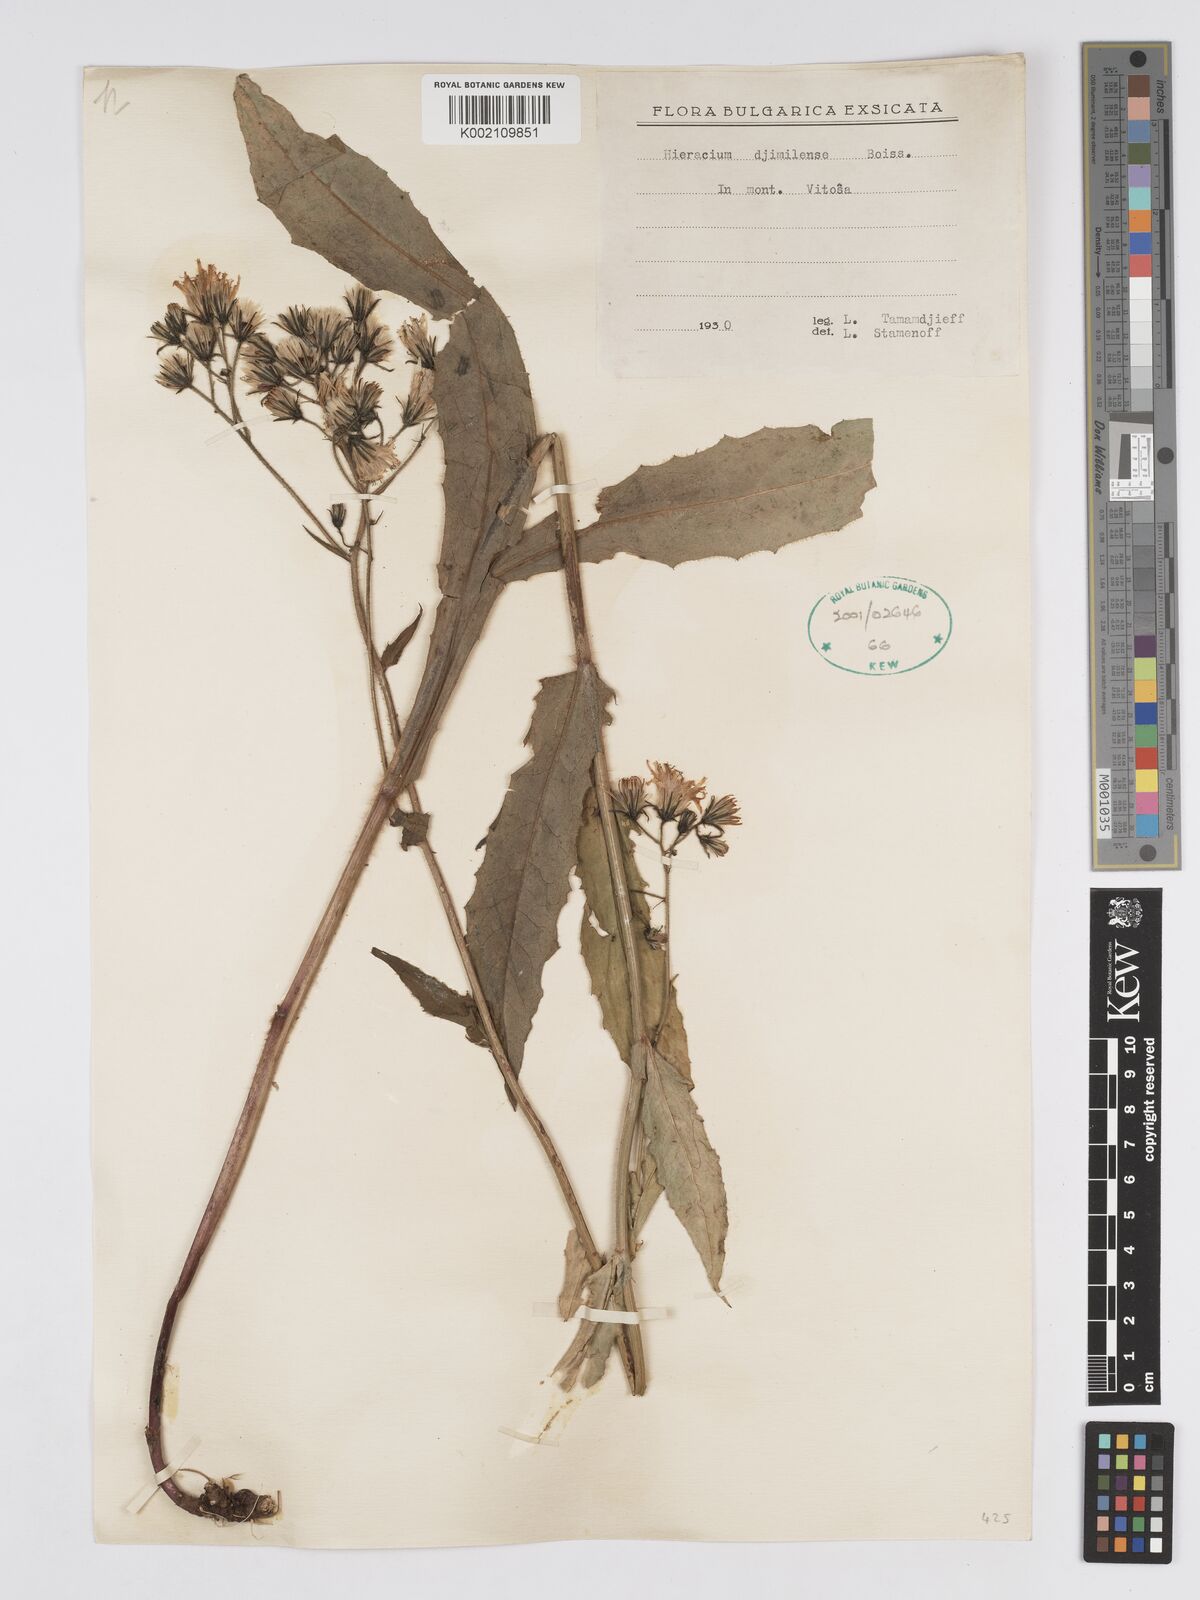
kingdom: Plantae
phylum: Tracheophyta
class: Magnoliopsida
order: Asterales
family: Asteraceae
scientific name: Asteraceae
